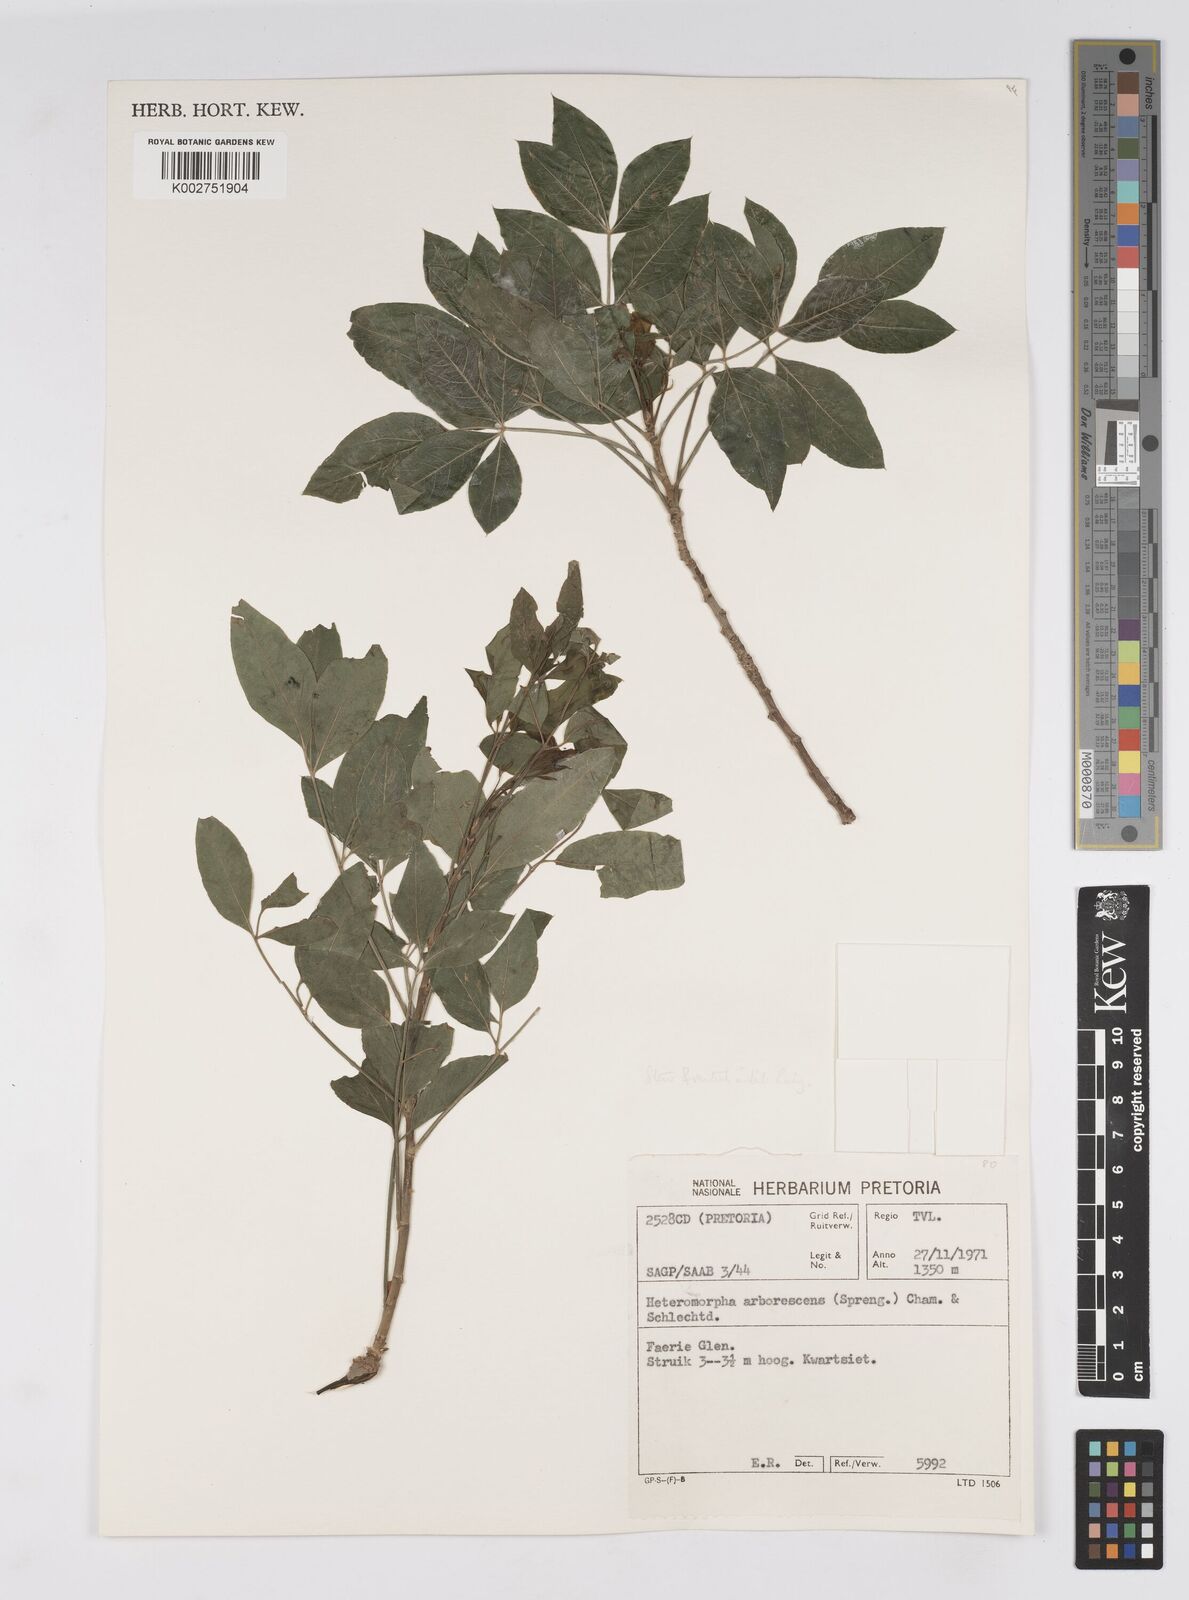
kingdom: Plantae
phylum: Tracheophyta
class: Magnoliopsida
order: Apiales
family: Apiaceae
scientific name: Apiaceae
